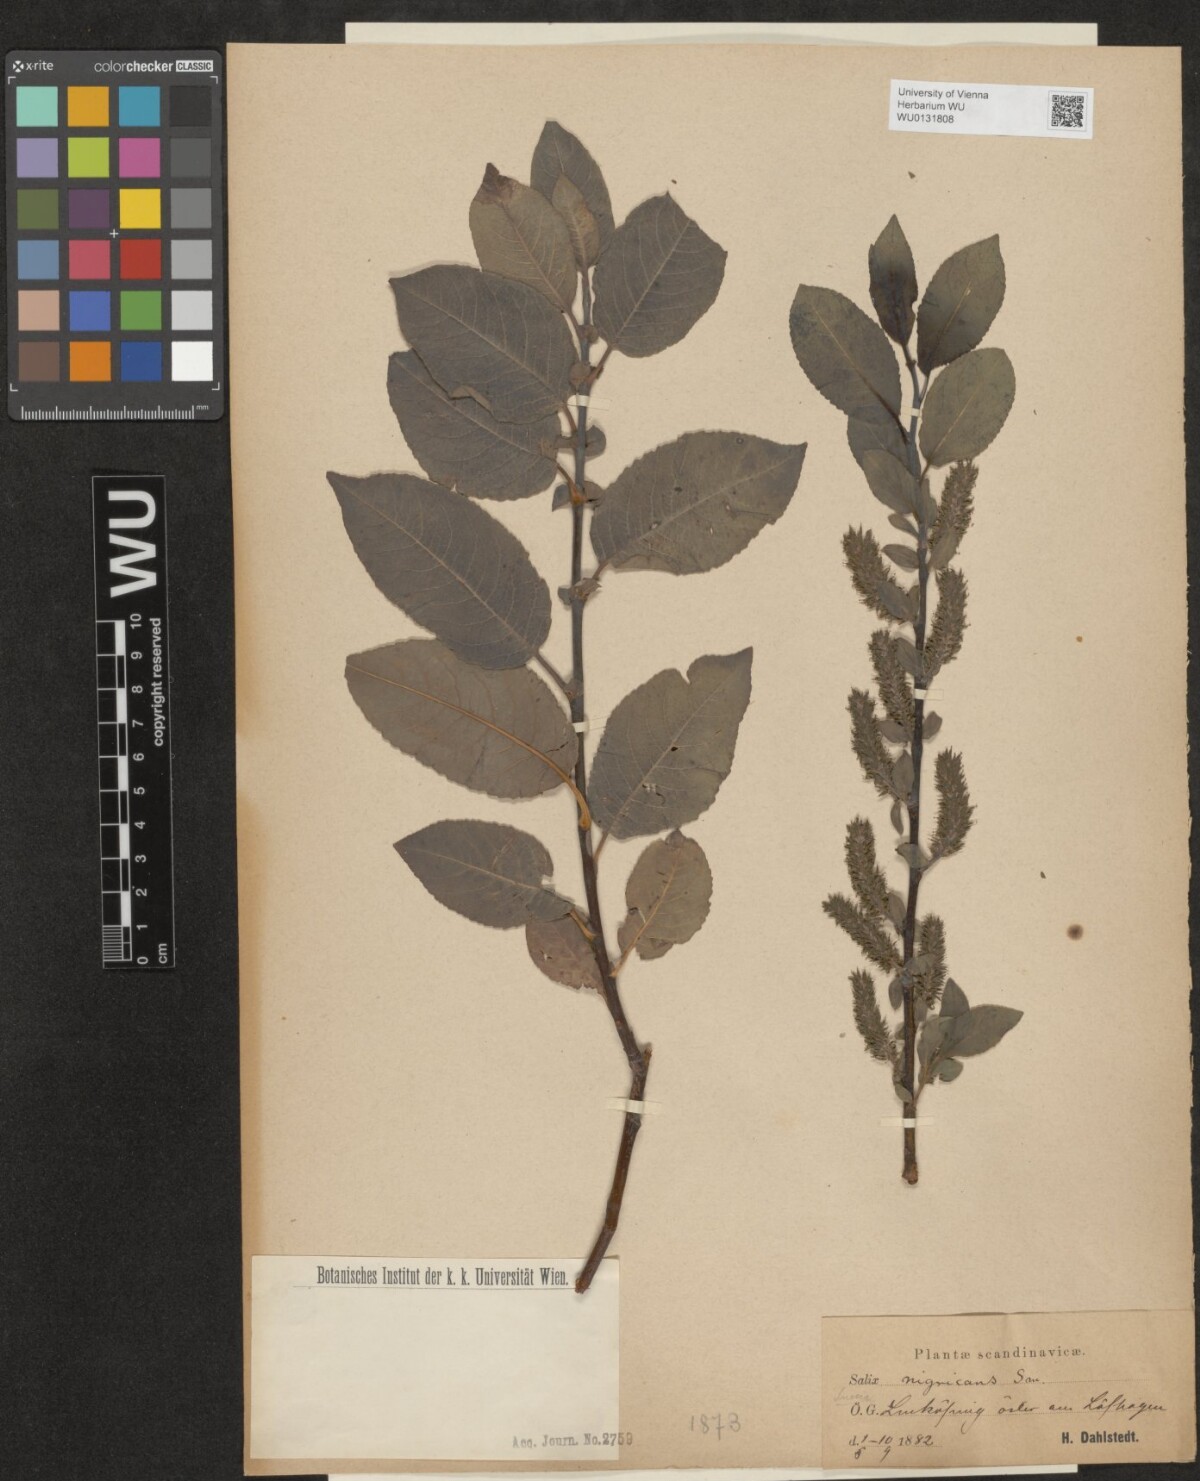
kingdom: Plantae
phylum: Tracheophyta
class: Magnoliopsida
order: Malpighiales
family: Salicaceae
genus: Salix
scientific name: Salix myrsinifolia
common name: Dark-leaved willow
